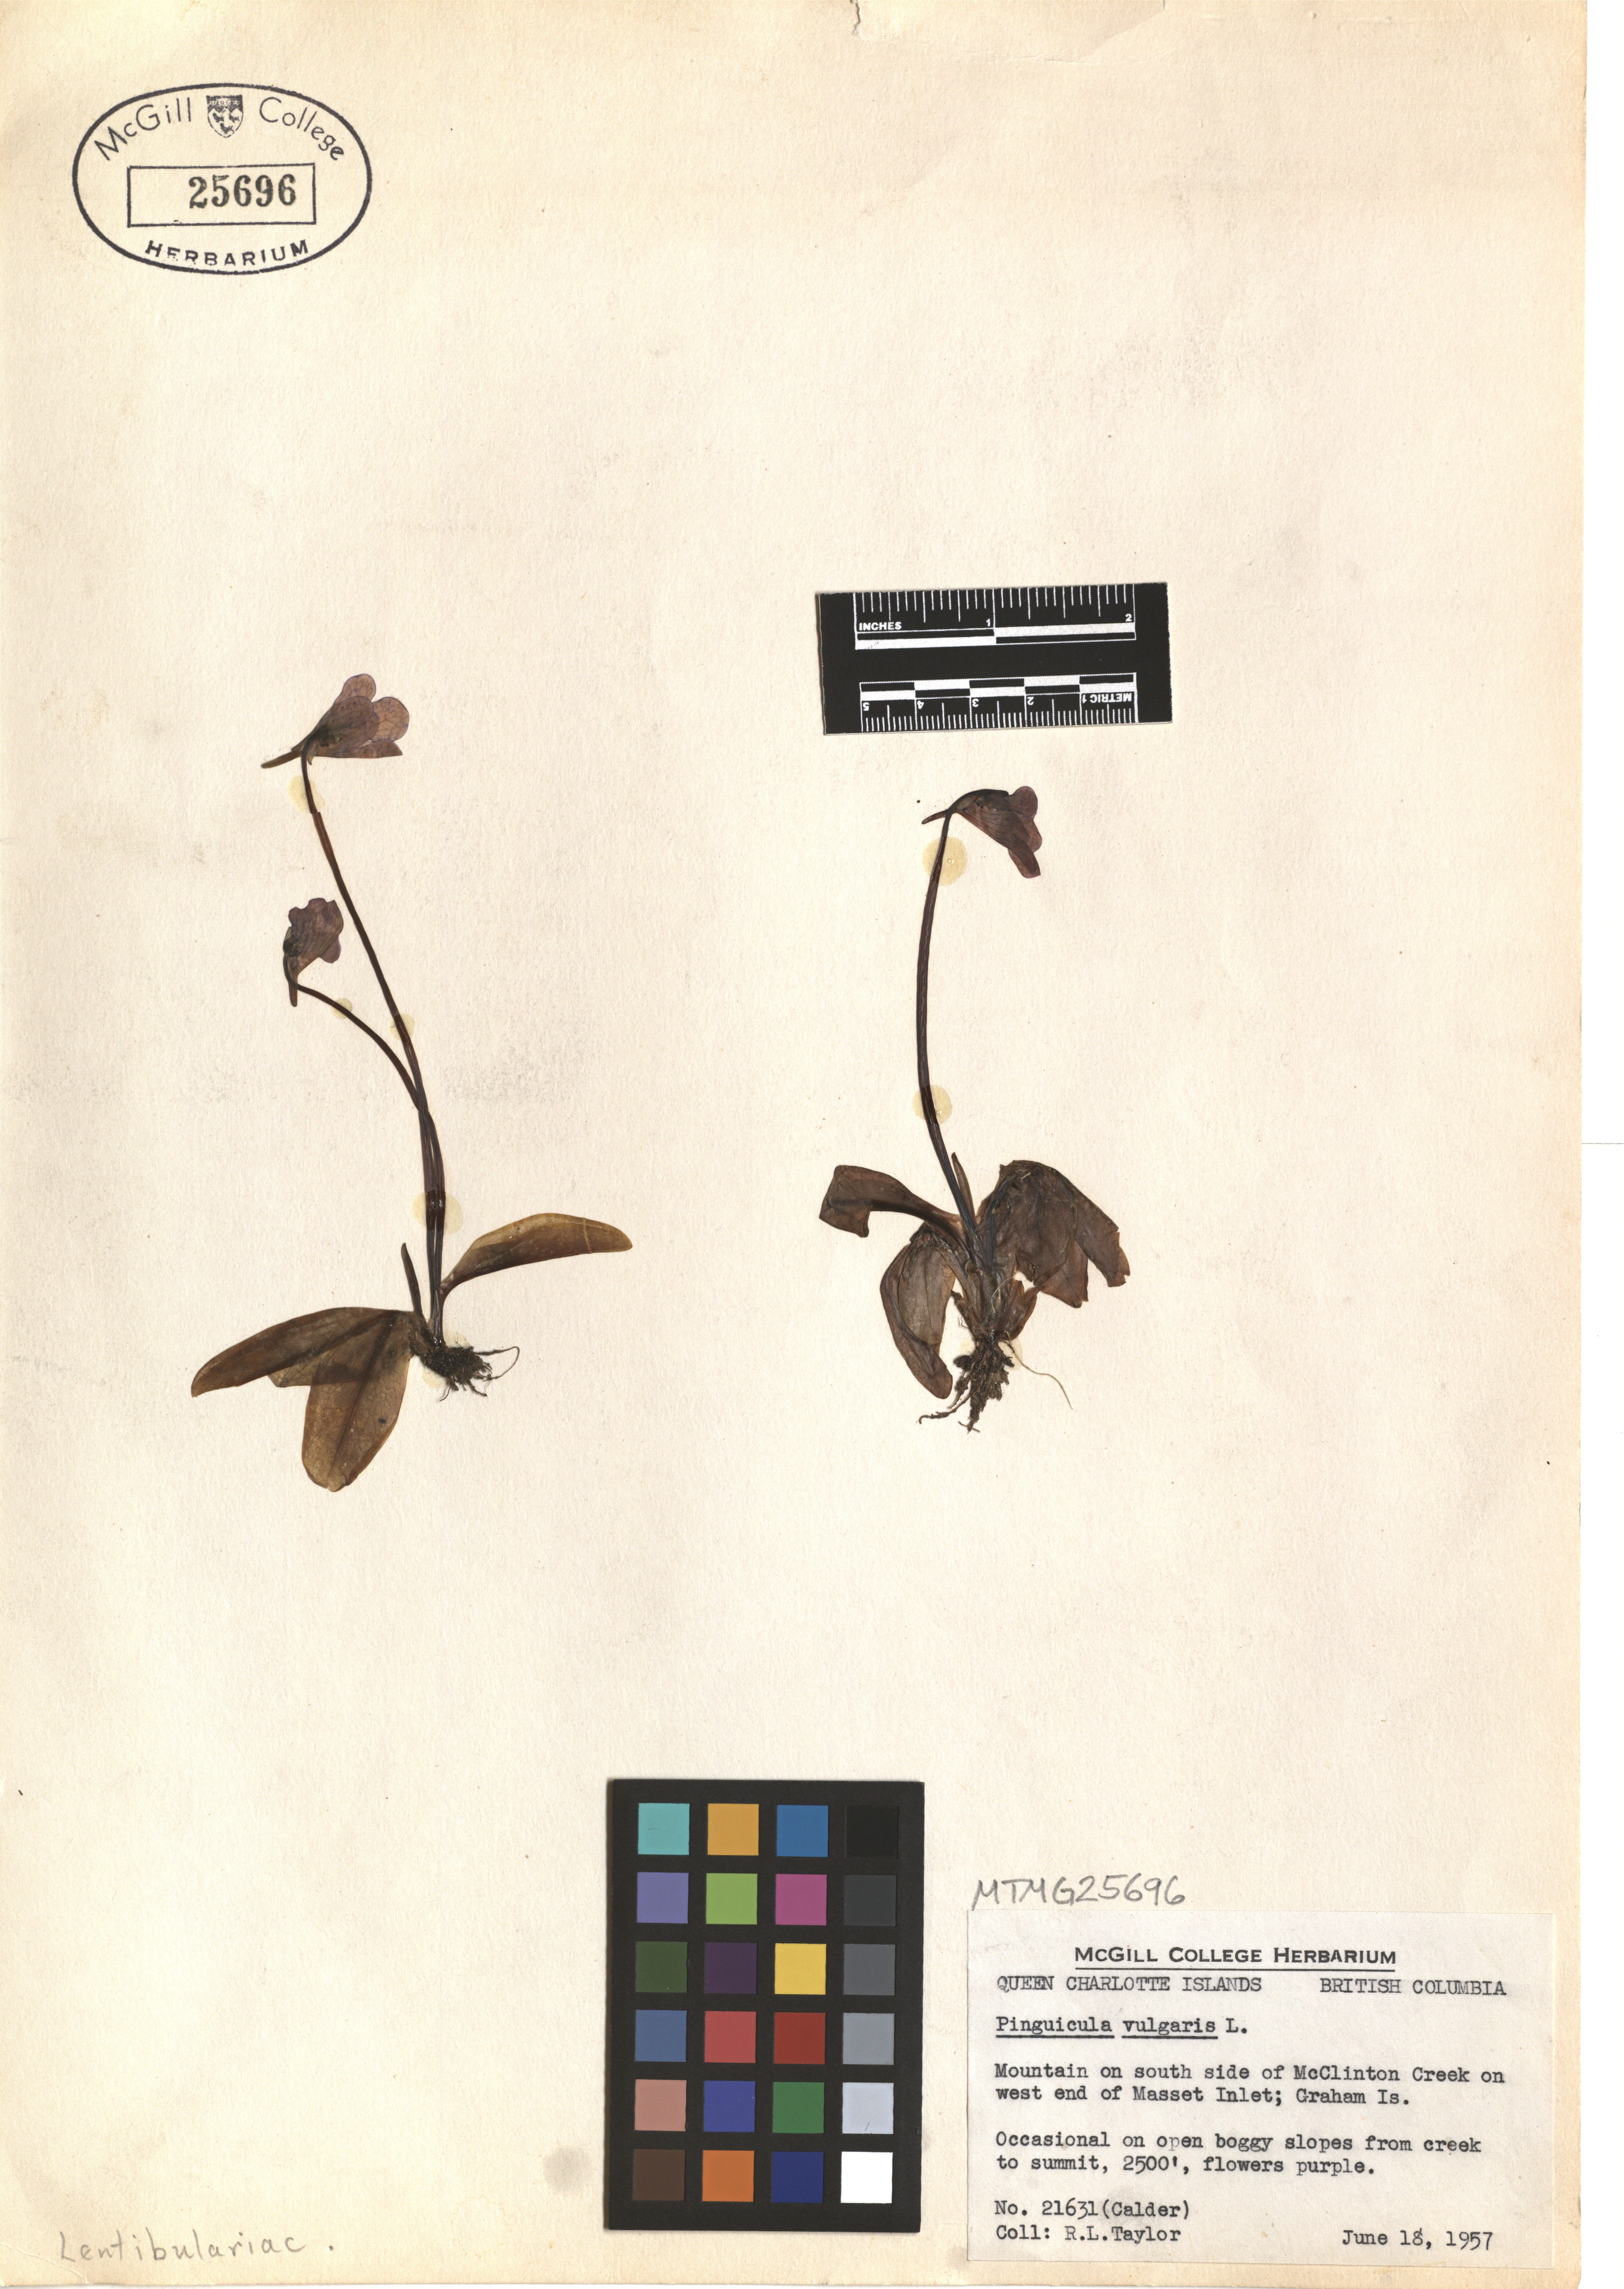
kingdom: Plantae
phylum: Tracheophyta
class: Magnoliopsida
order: Lamiales
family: Lentibulariaceae
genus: Pinguicula
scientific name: Pinguicula vulgaris
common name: Common butterwort
